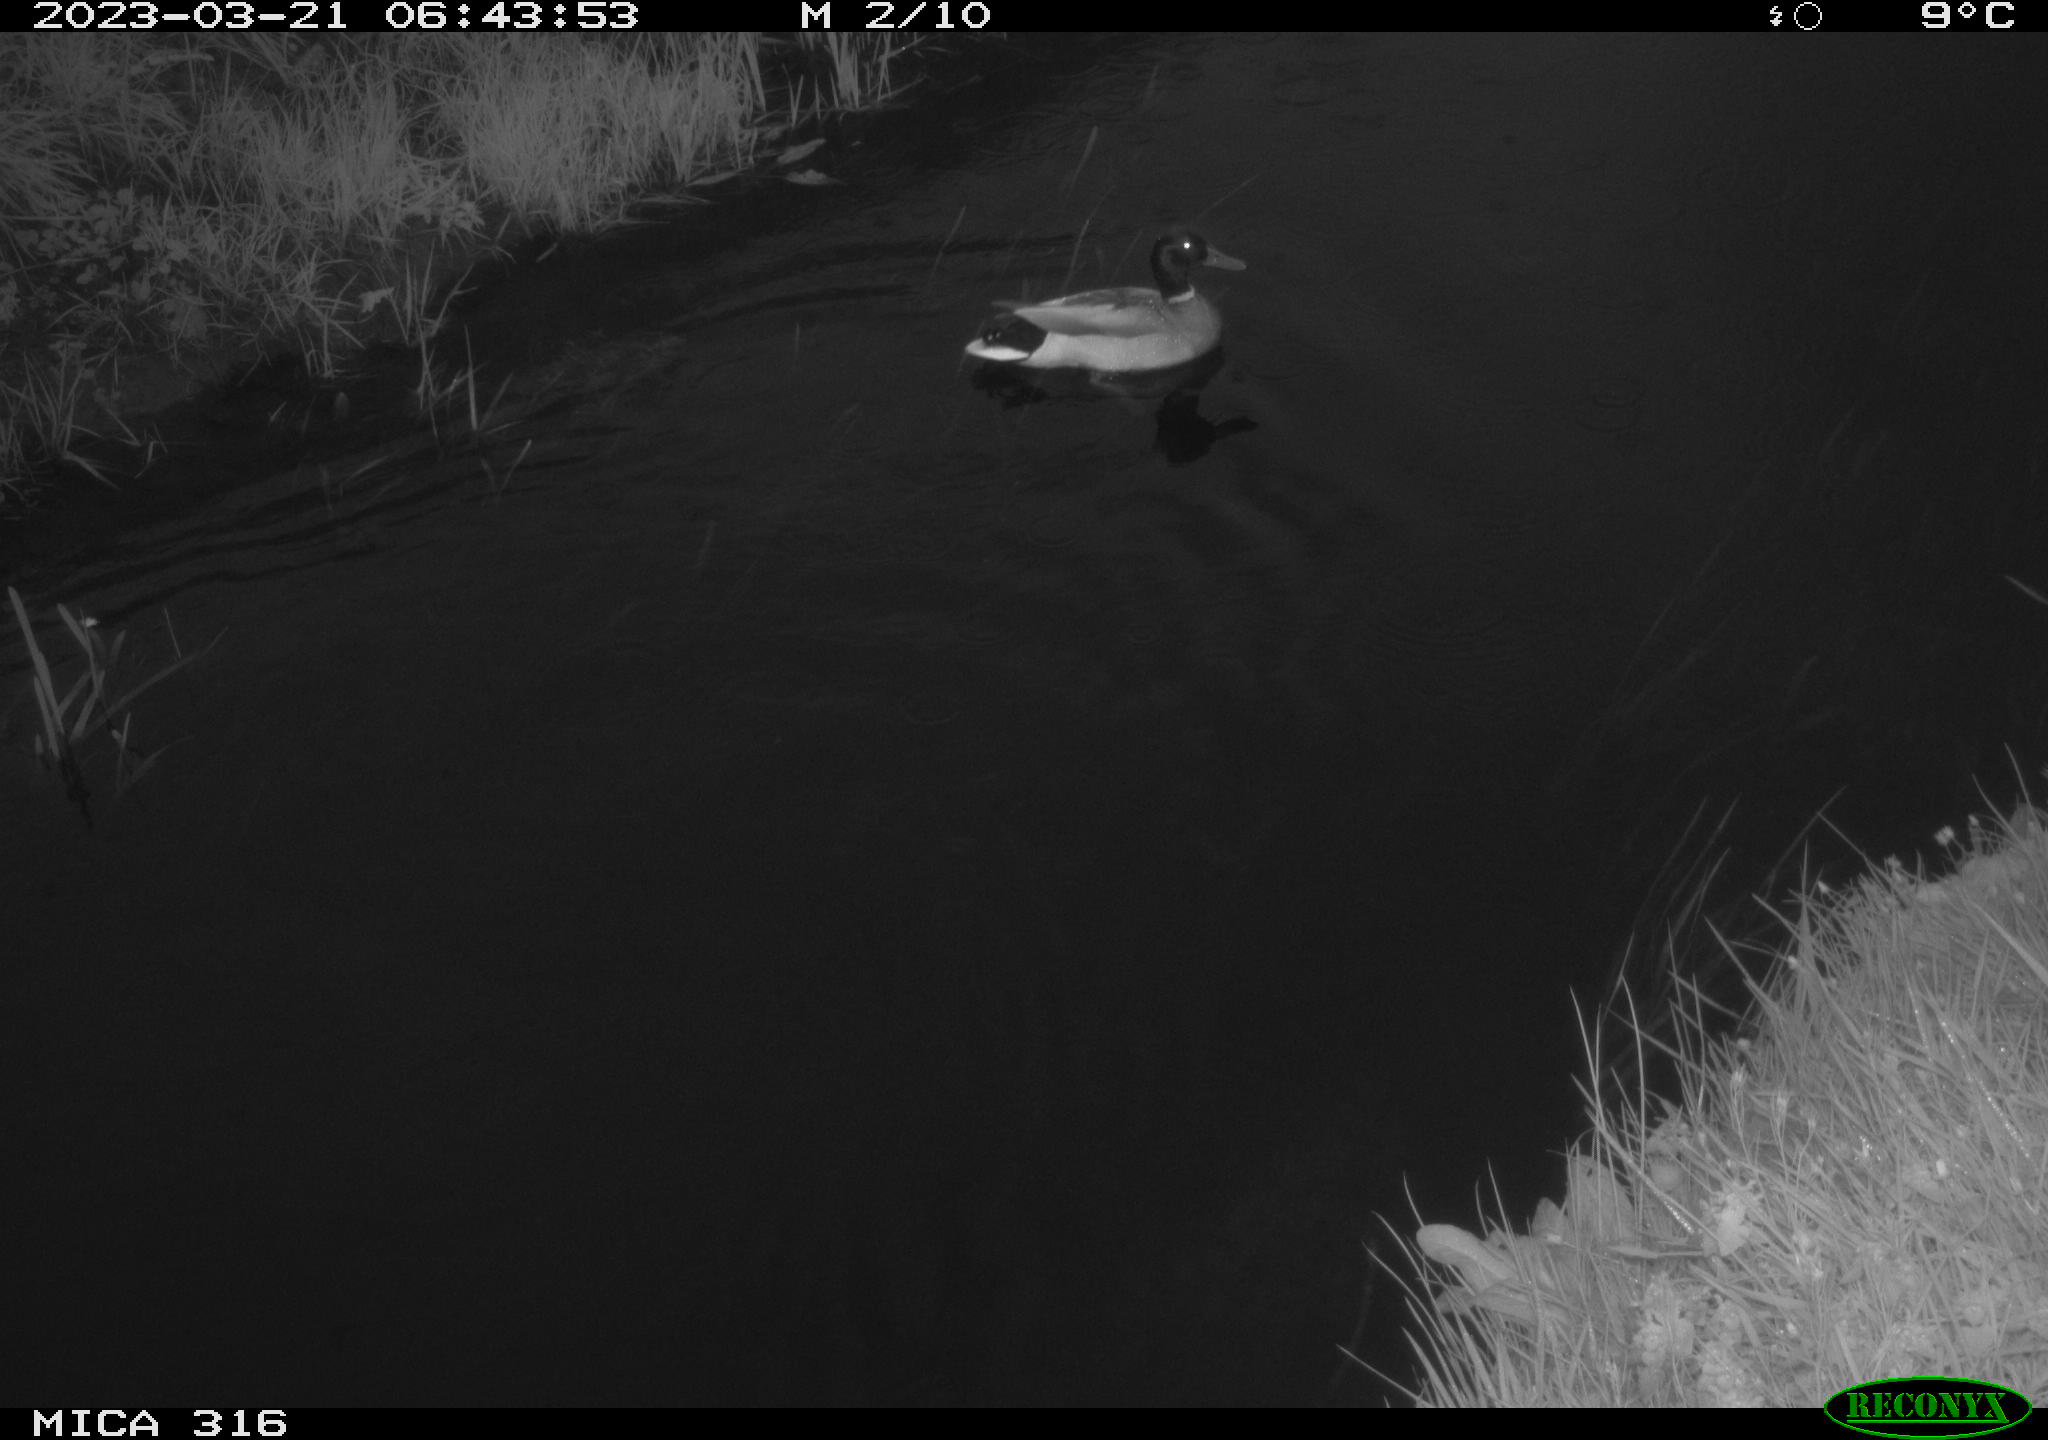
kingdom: Animalia
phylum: Chordata
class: Aves
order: Anseriformes
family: Anatidae
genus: Anas
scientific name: Anas
